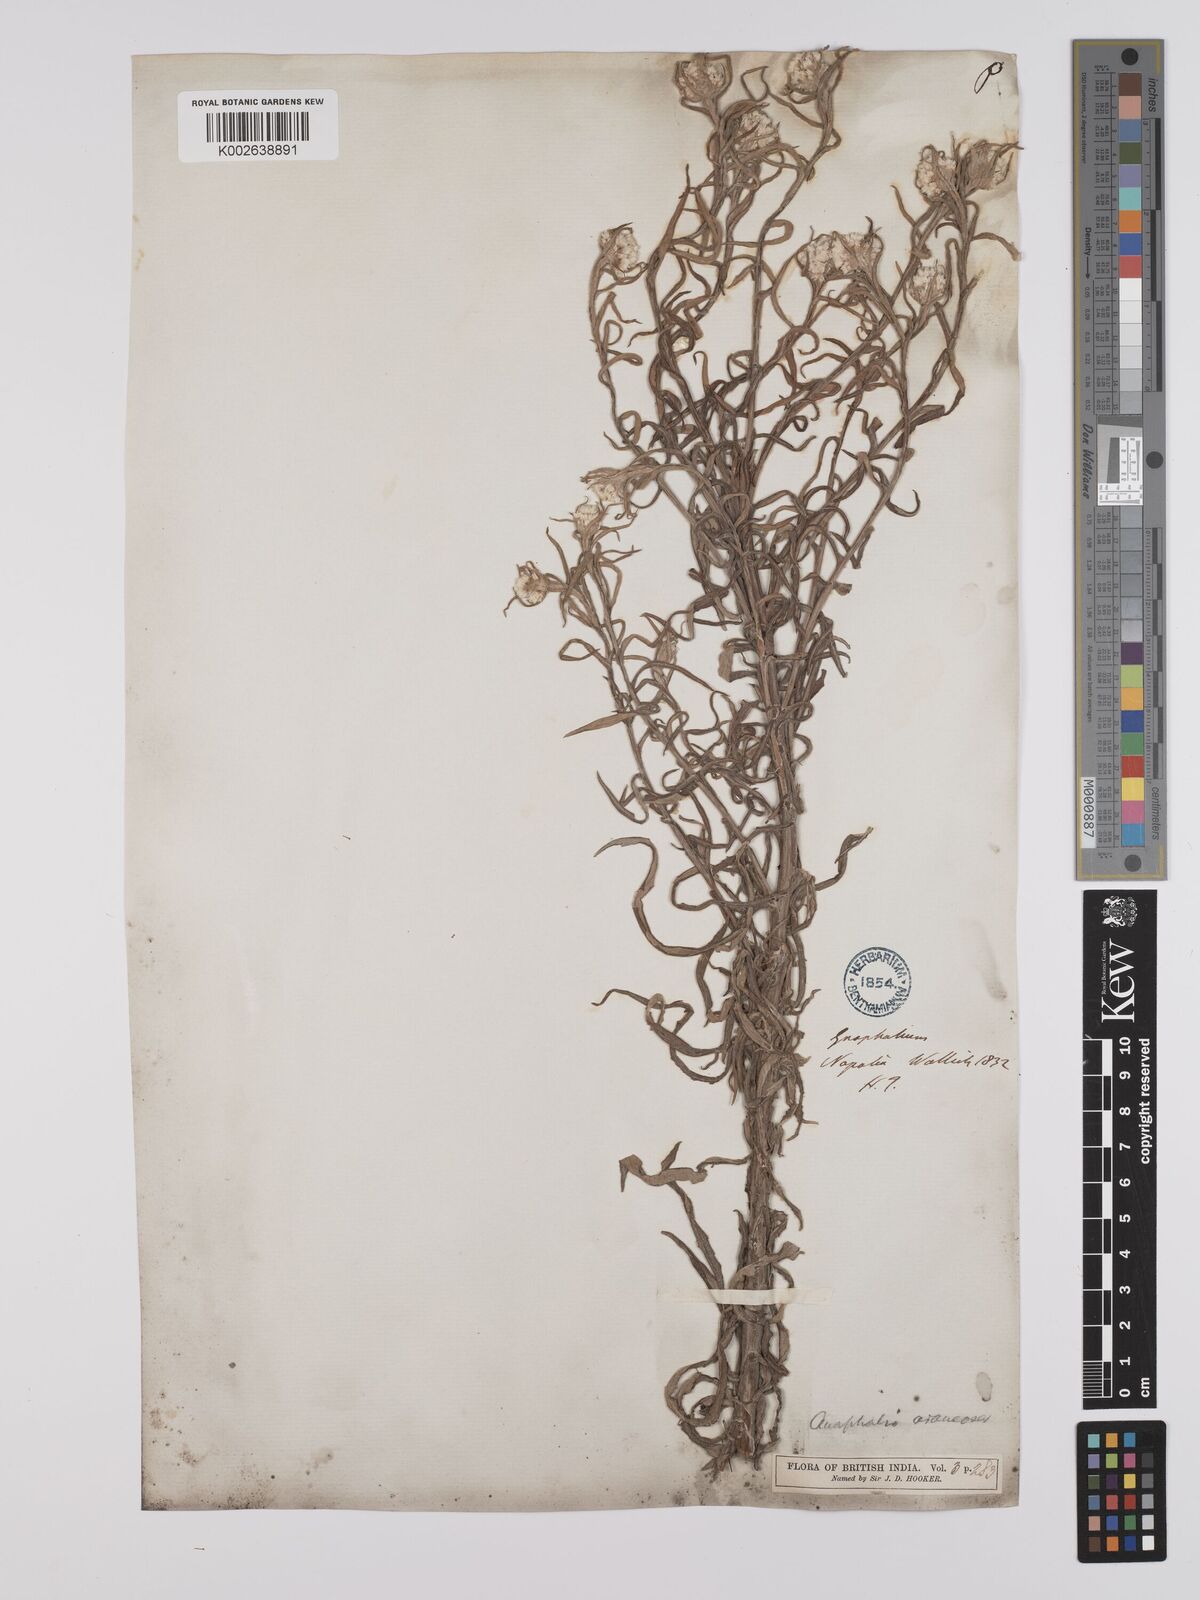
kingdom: Plantae
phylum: Tracheophyta
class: Magnoliopsida
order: Asterales
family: Asteraceae
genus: Anaphalis
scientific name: Anaphalis busua
